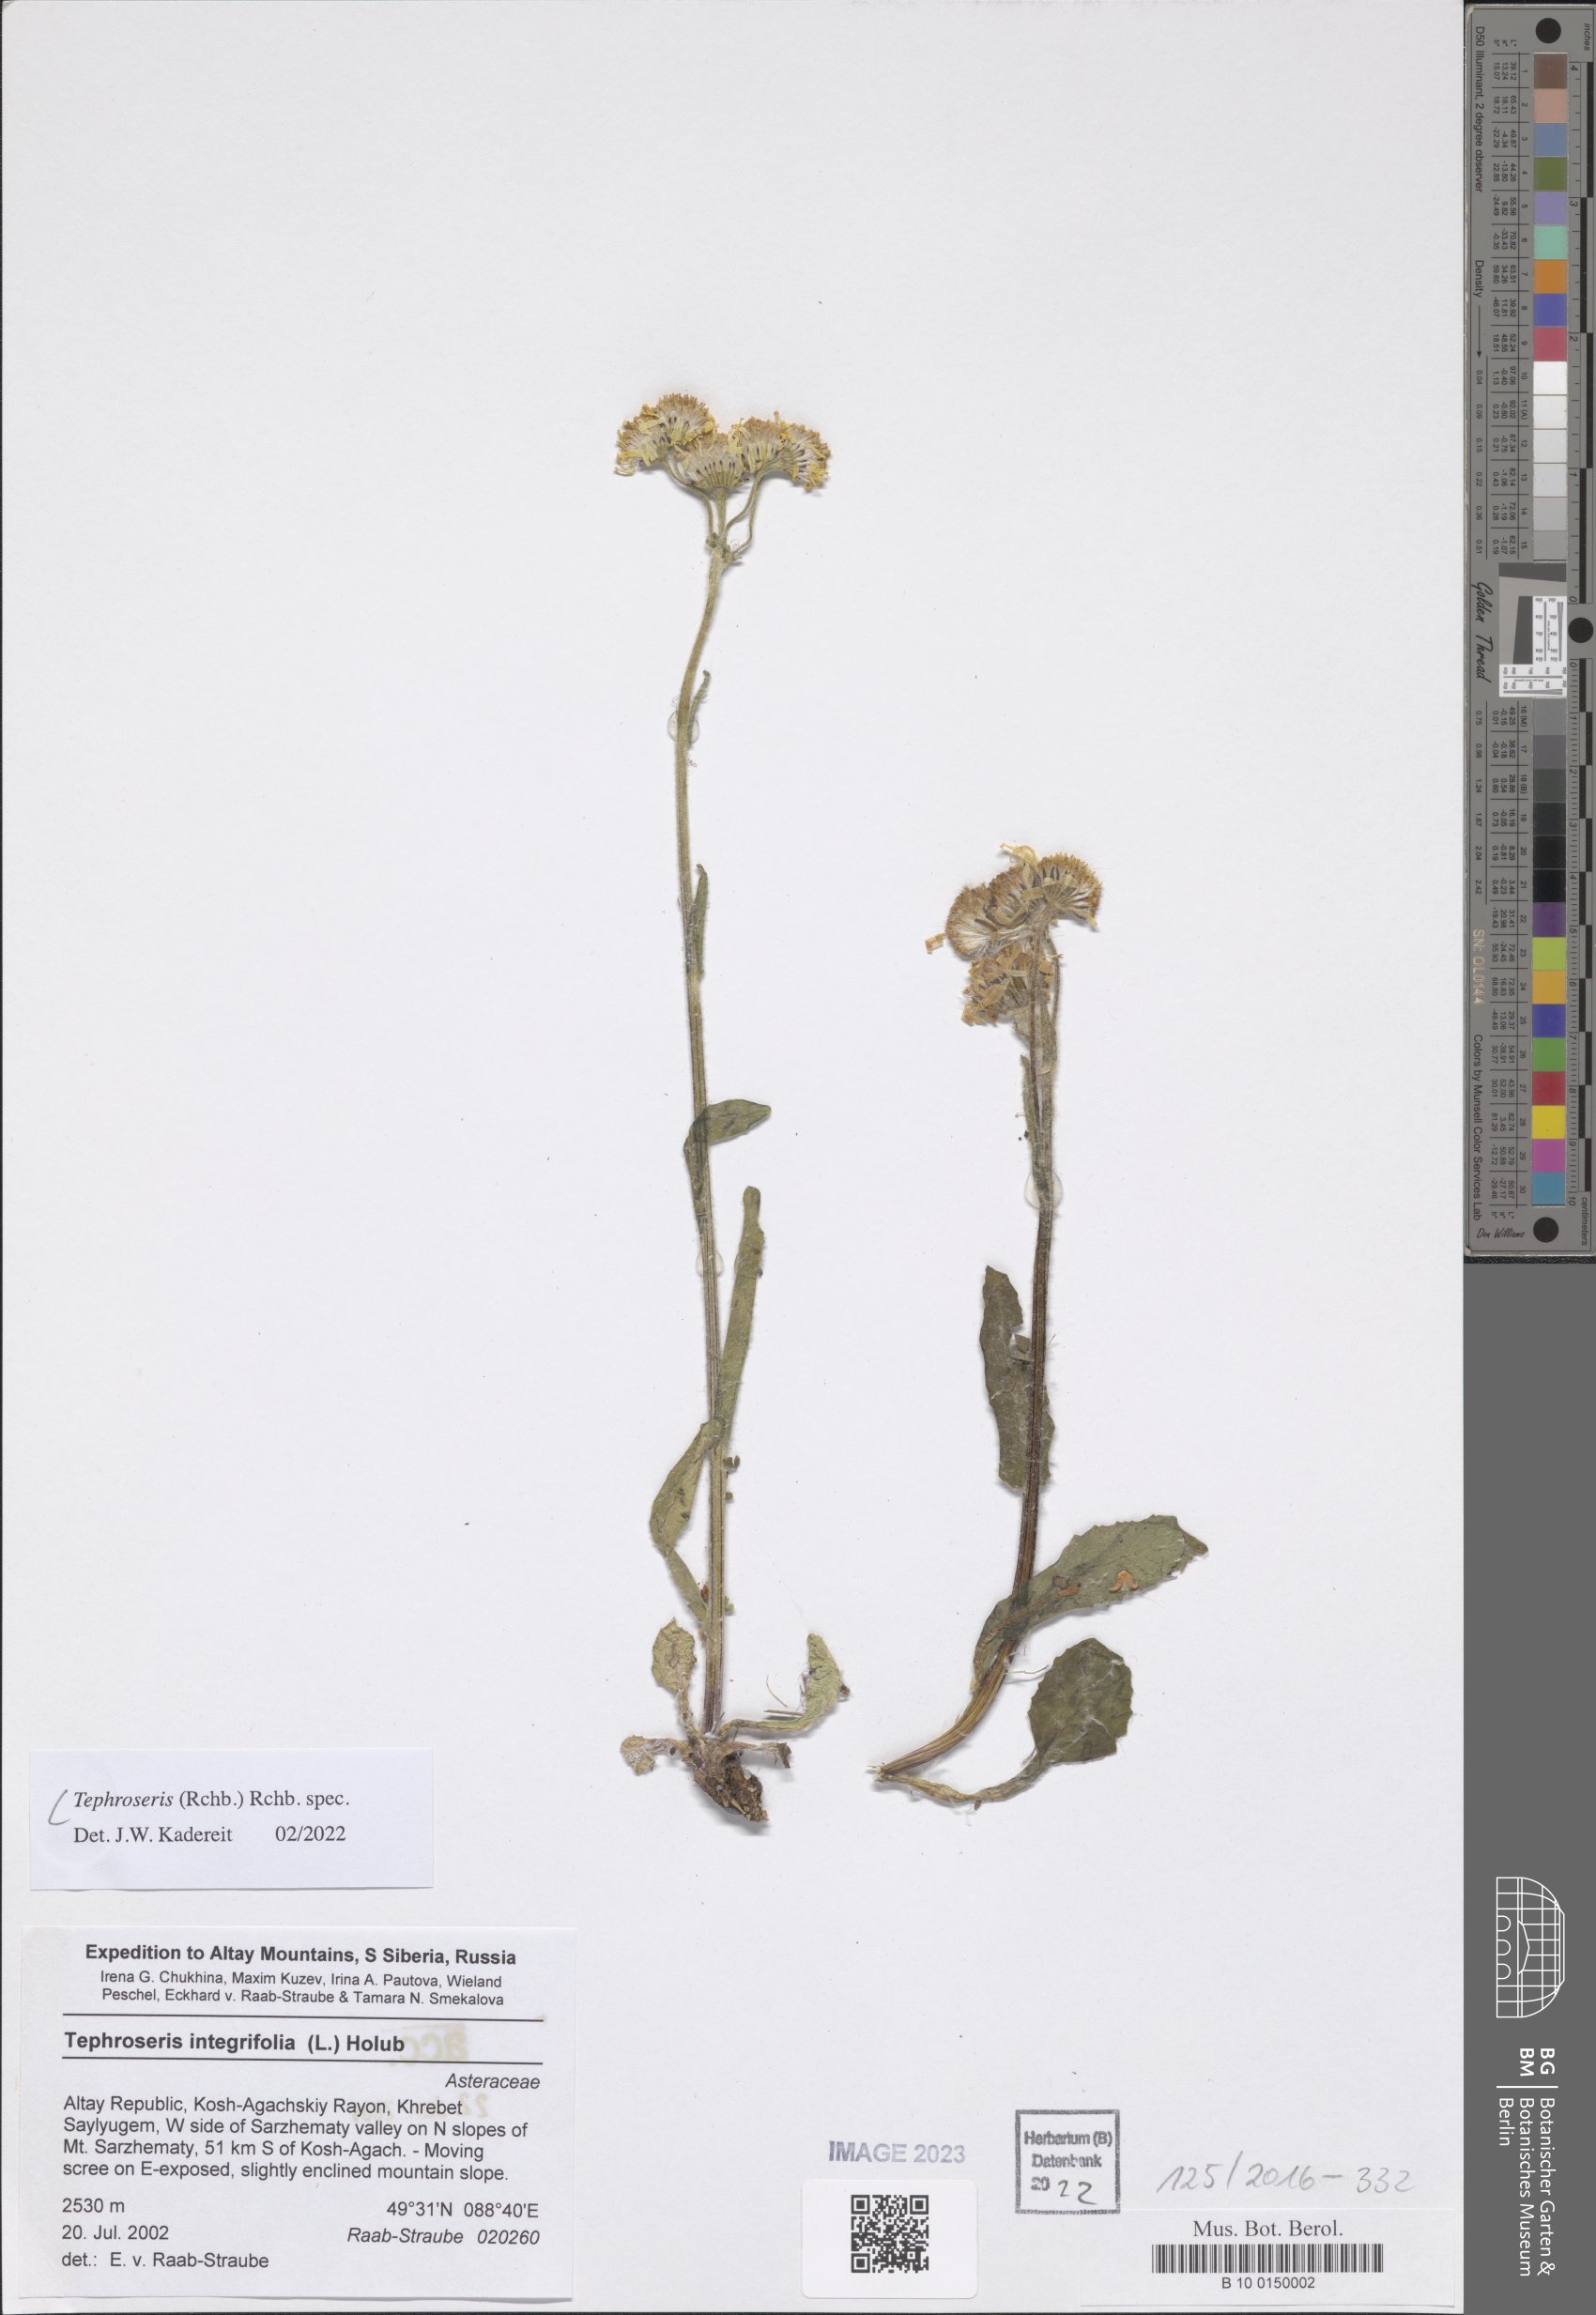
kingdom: Plantae
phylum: Tracheophyta
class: Magnoliopsida
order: Asterales
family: Asteraceae
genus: Tephroseris
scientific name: Tephroseris
